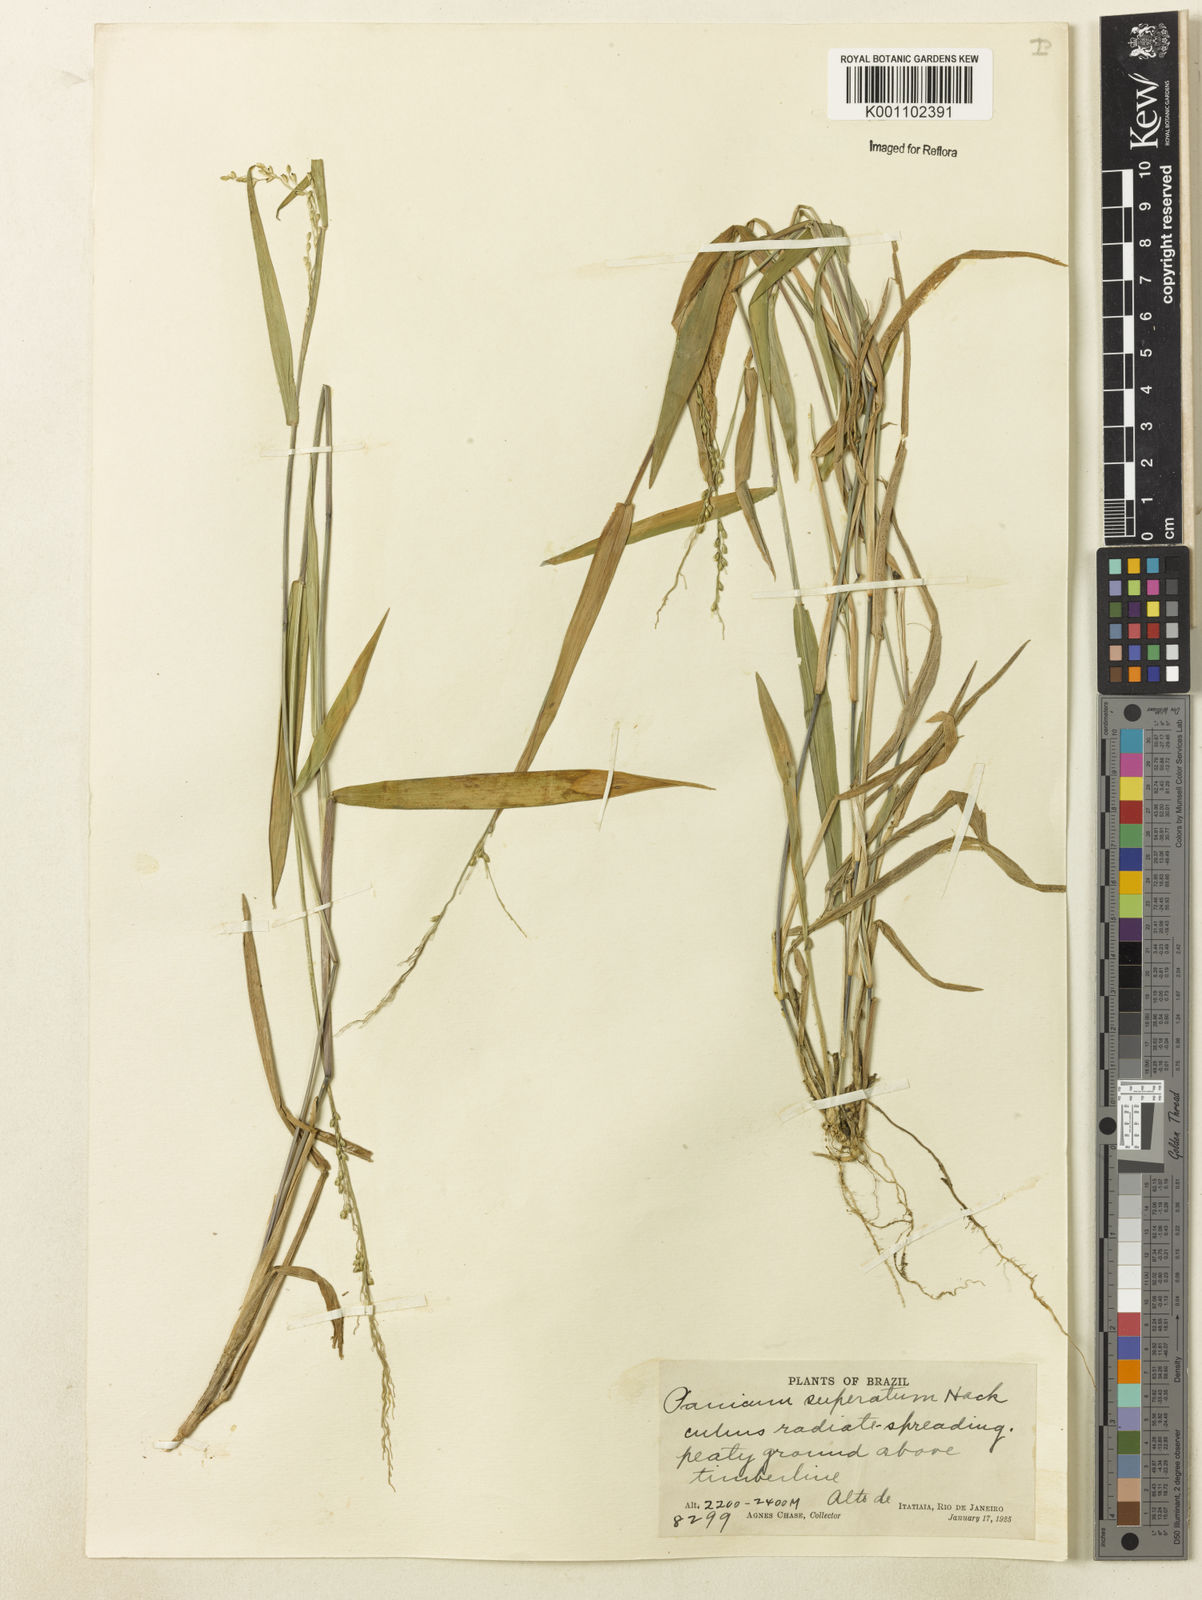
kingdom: Plantae
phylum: Tracheophyta
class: Liliopsida
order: Poales
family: Poaceae
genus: Dichanthelium
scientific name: Dichanthelium superatum
